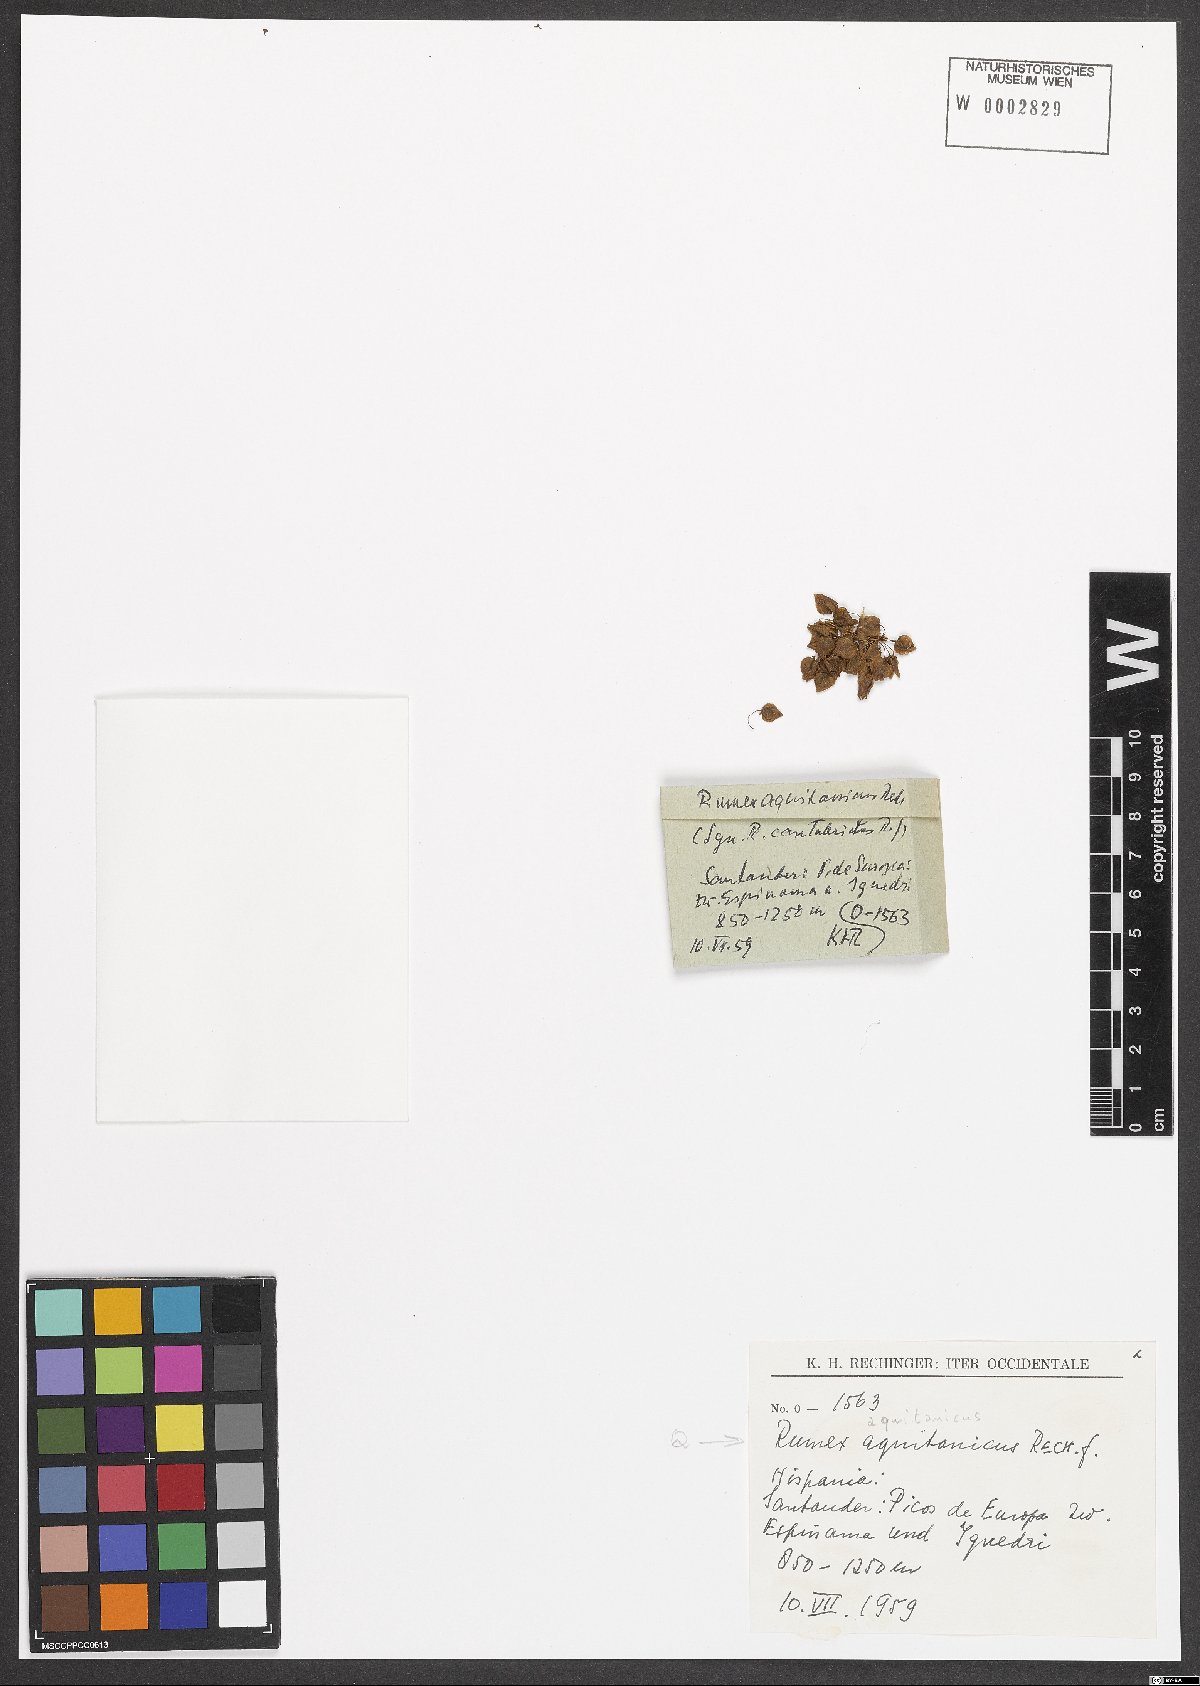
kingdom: Plantae
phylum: Tracheophyta
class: Magnoliopsida
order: Caryophyllales
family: Polygonaceae
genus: Rumex
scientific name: Rumex aquitanicus
